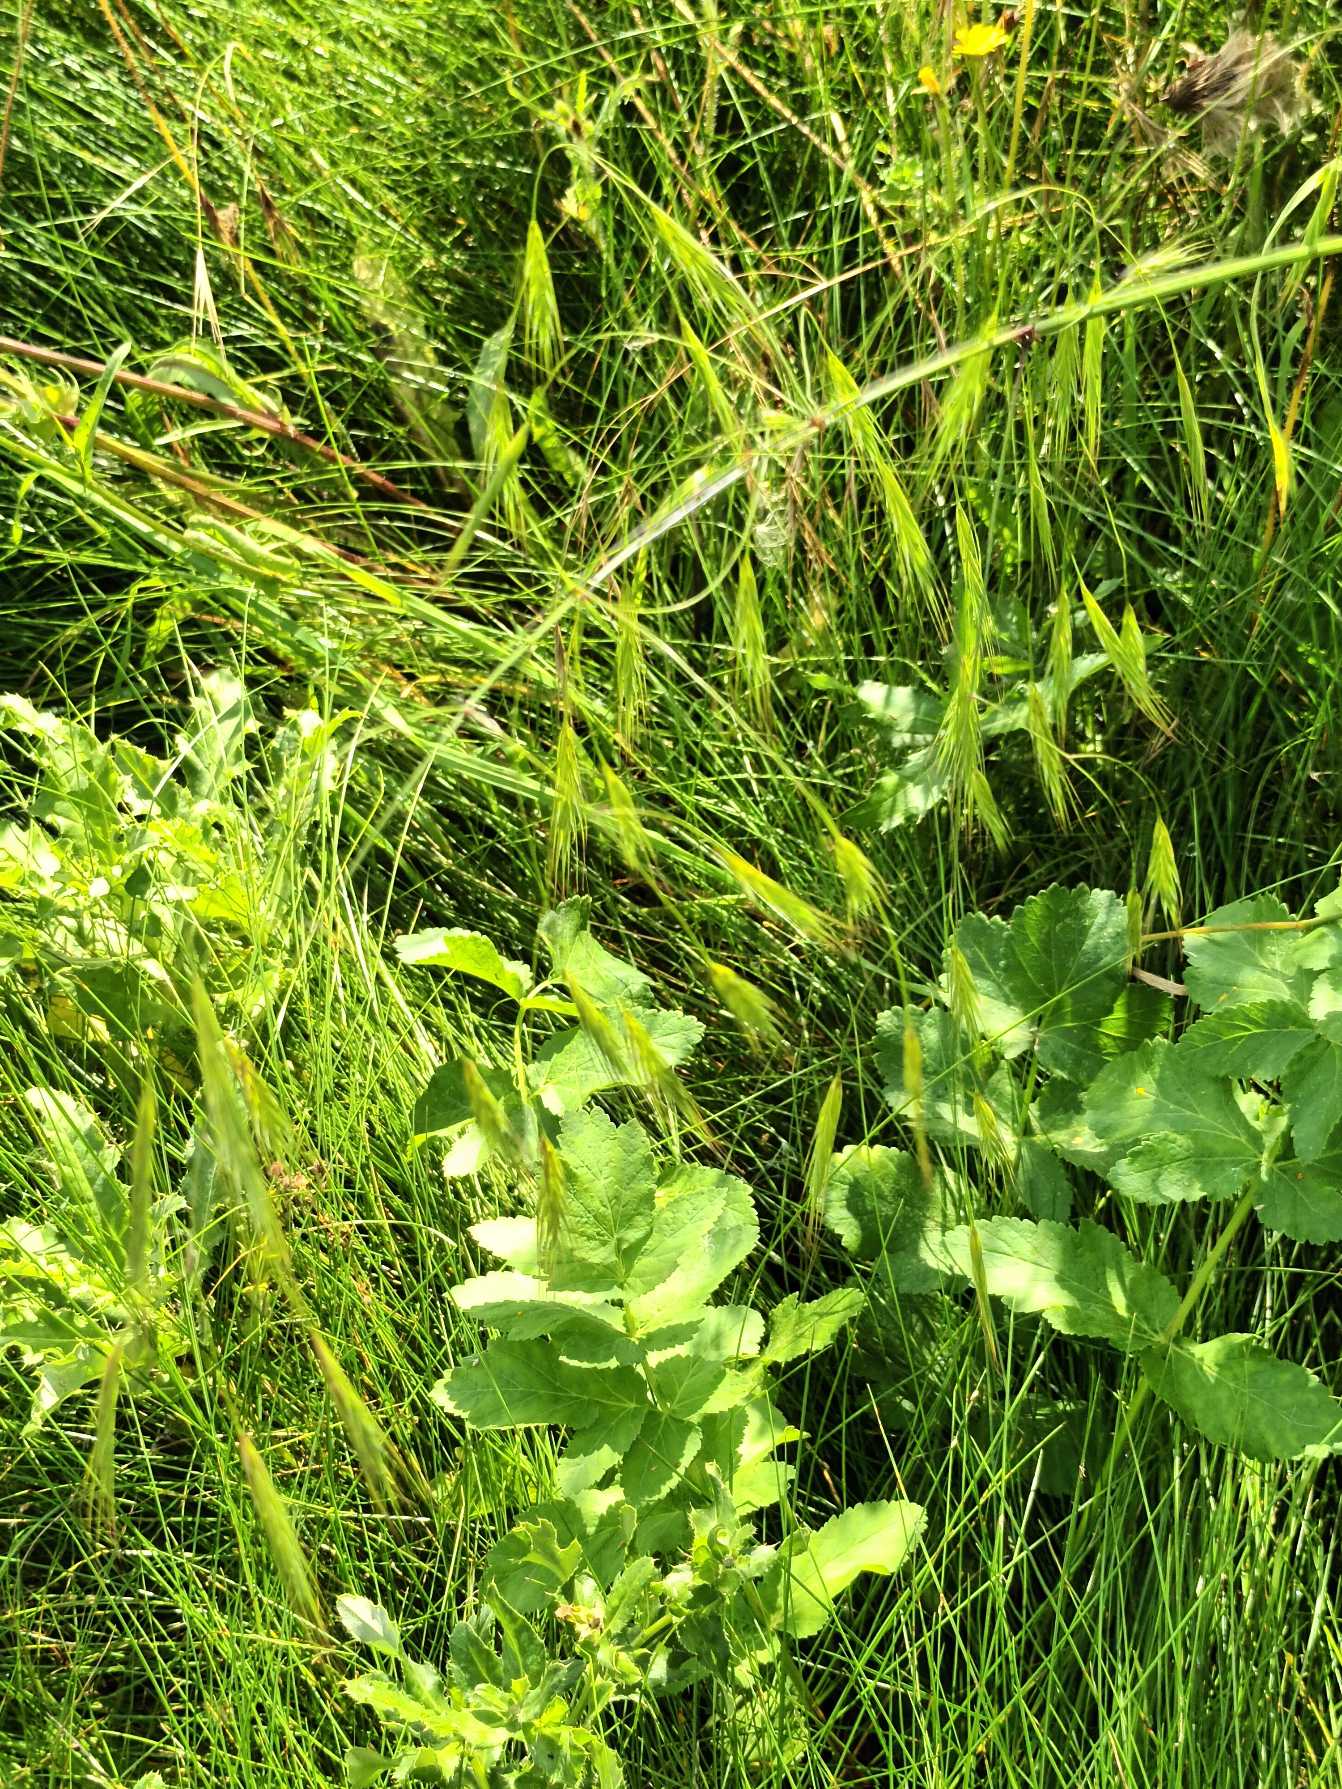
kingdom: Plantae
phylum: Tracheophyta
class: Liliopsida
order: Poales
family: Poaceae
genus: Bromus
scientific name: Bromus sterilis
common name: Gold hejre
